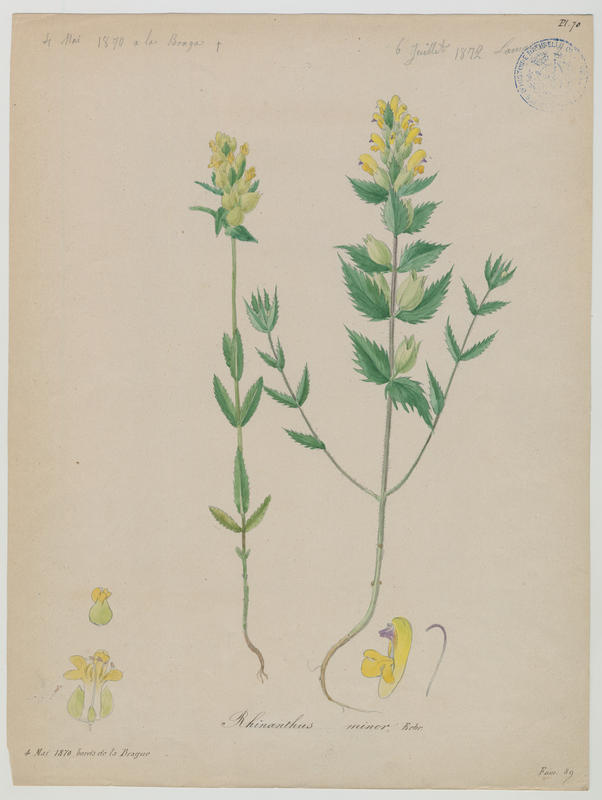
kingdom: Plantae
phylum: Tracheophyta
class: Magnoliopsida
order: Lamiales
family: Orobanchaceae
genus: Rhinanthus
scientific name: Rhinanthus minor
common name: Yellow-rattle
